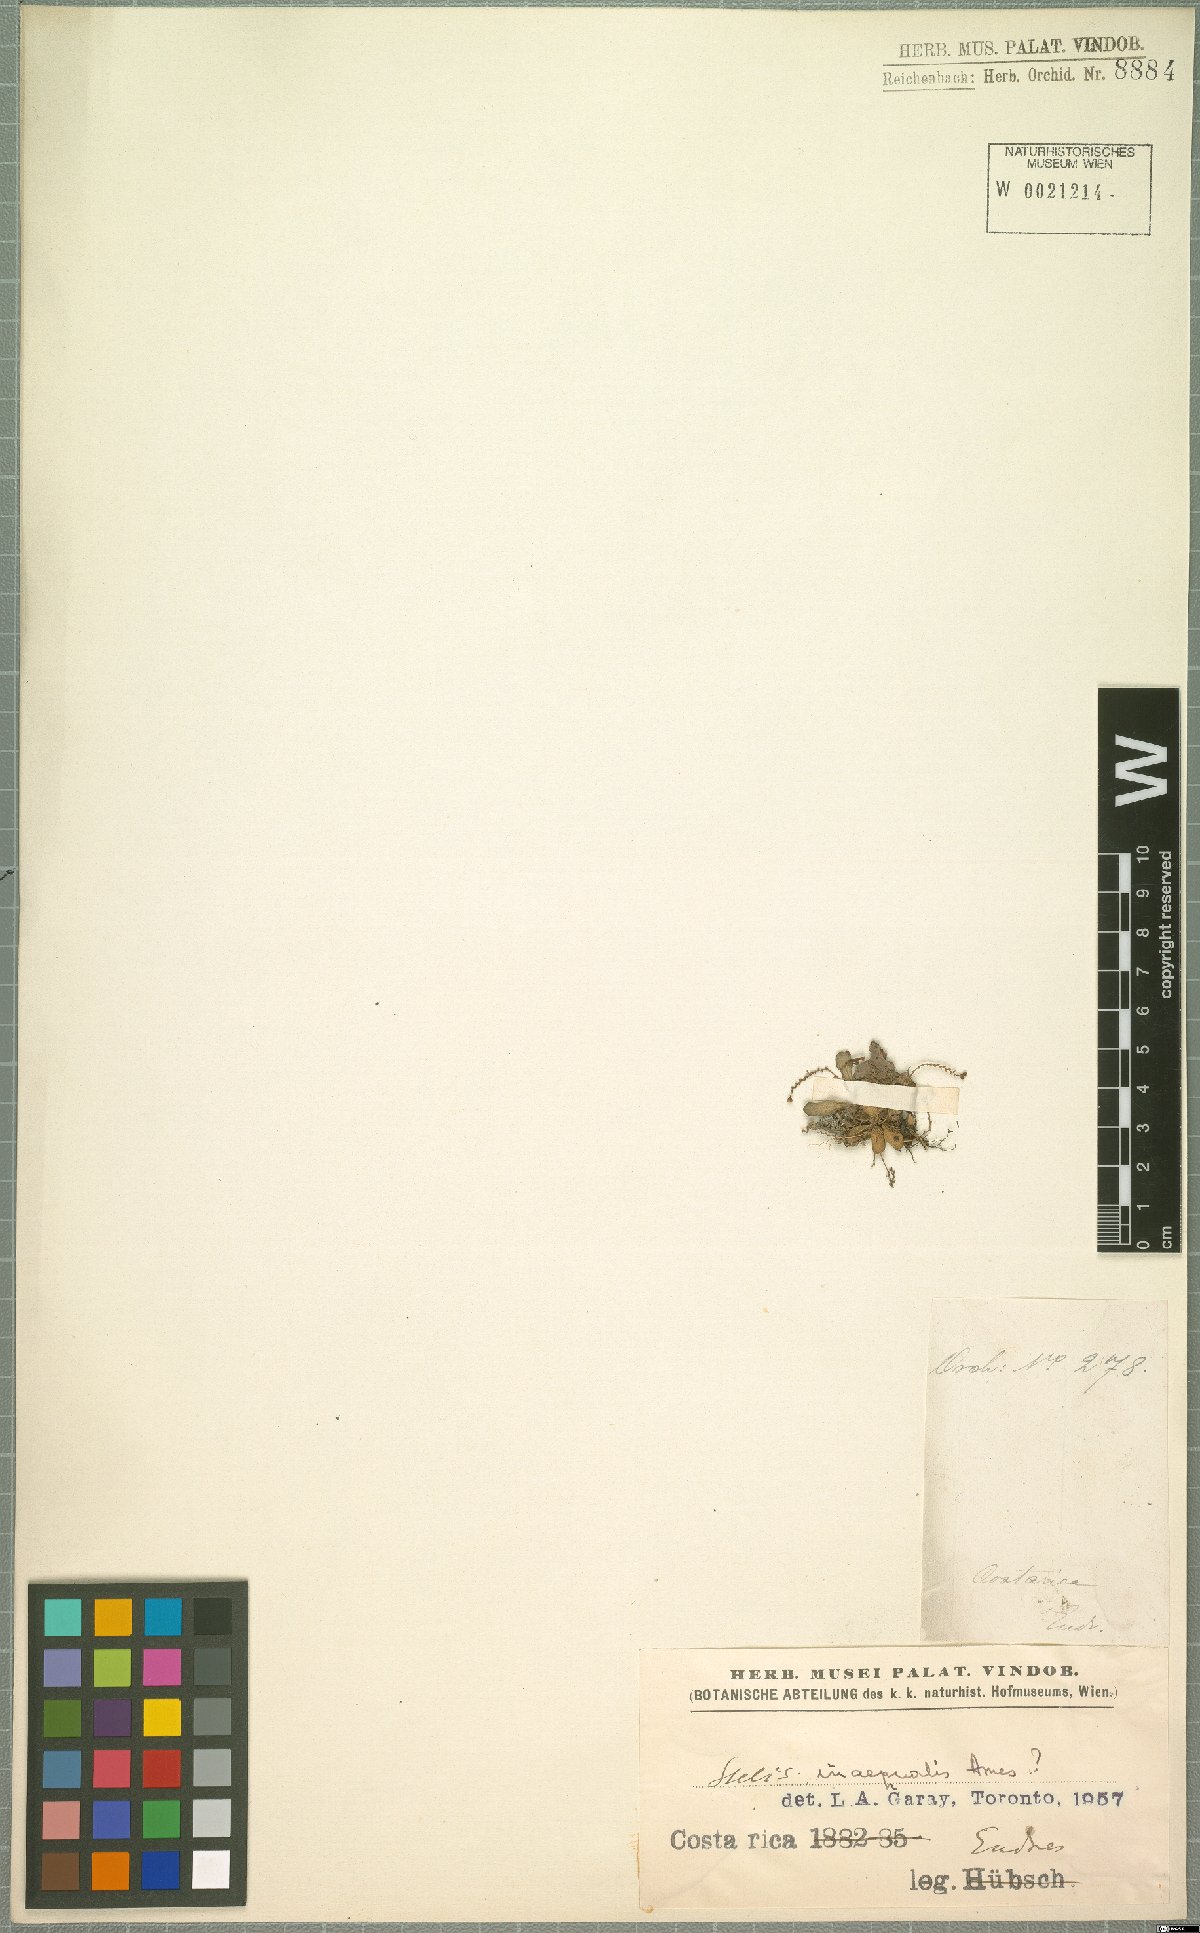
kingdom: Plantae
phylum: Tracheophyta
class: Liliopsida
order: Asparagales
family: Orchidaceae
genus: Stelis
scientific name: Stelis glossula
